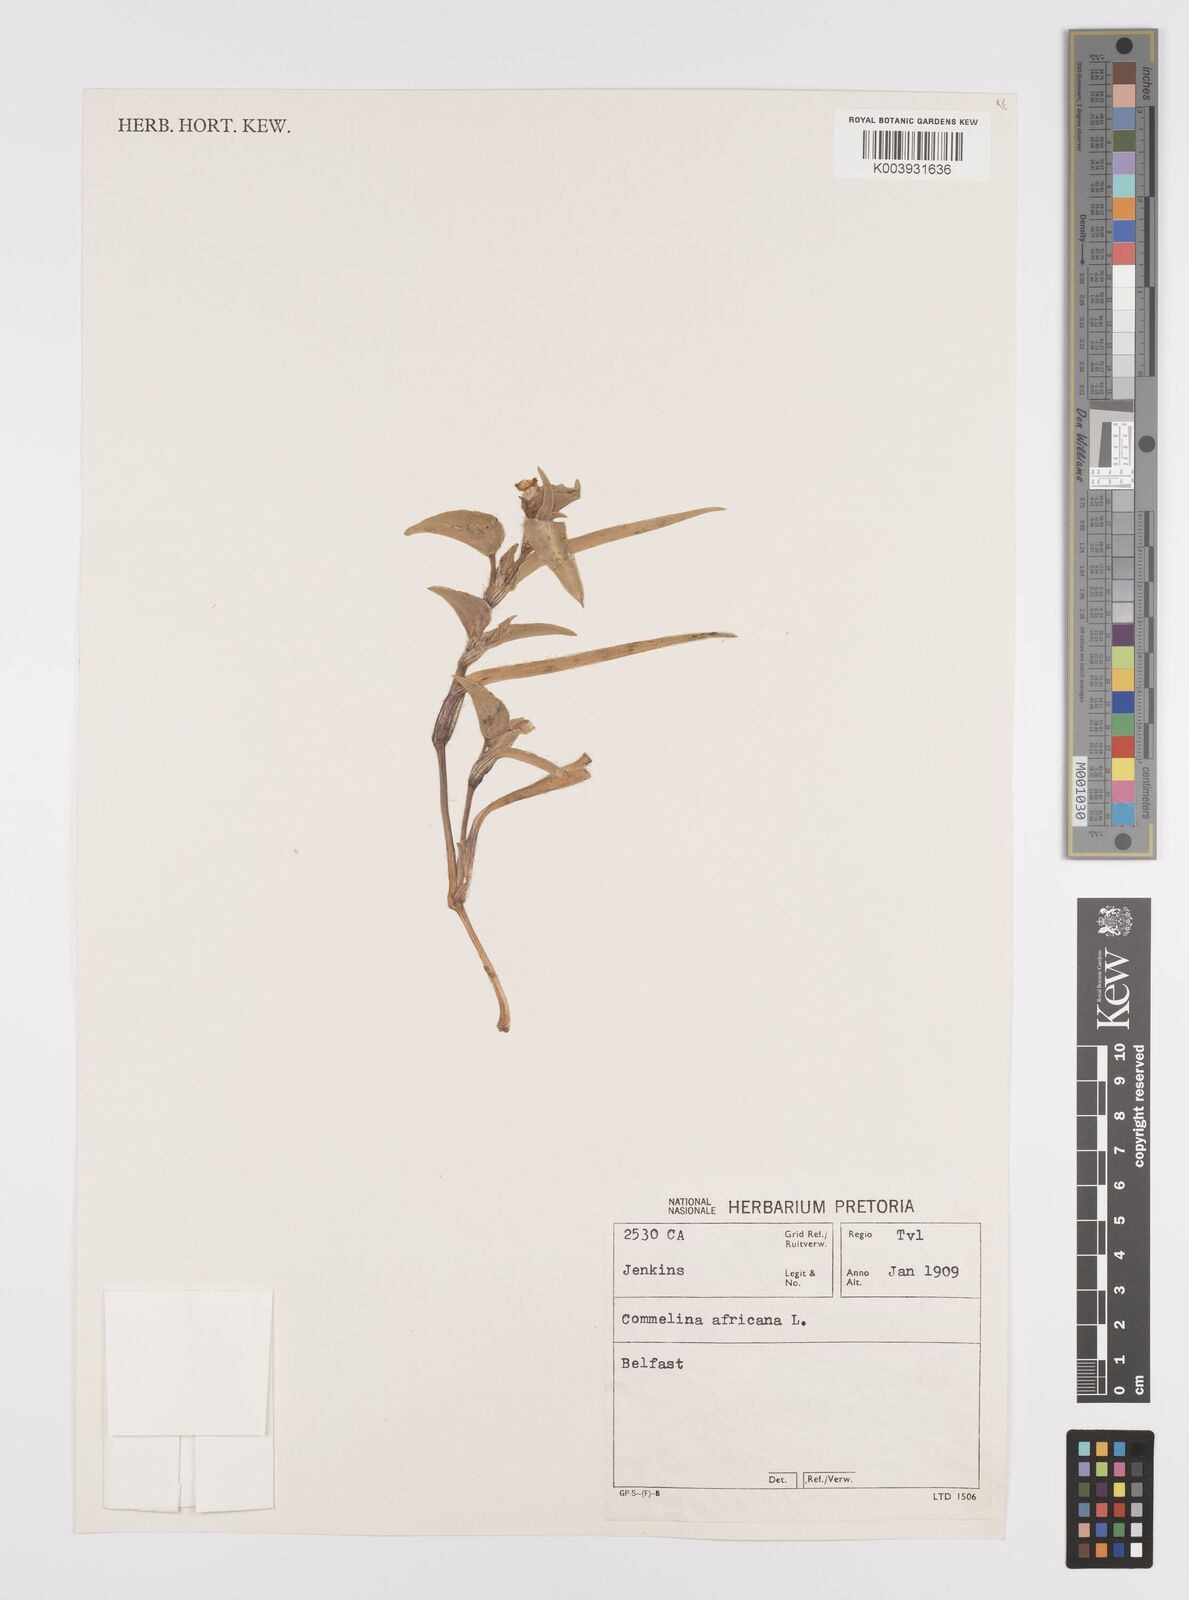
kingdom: Plantae
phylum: Tracheophyta
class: Liliopsida
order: Commelinales
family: Commelinaceae
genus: Commelina
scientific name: Commelina africana
